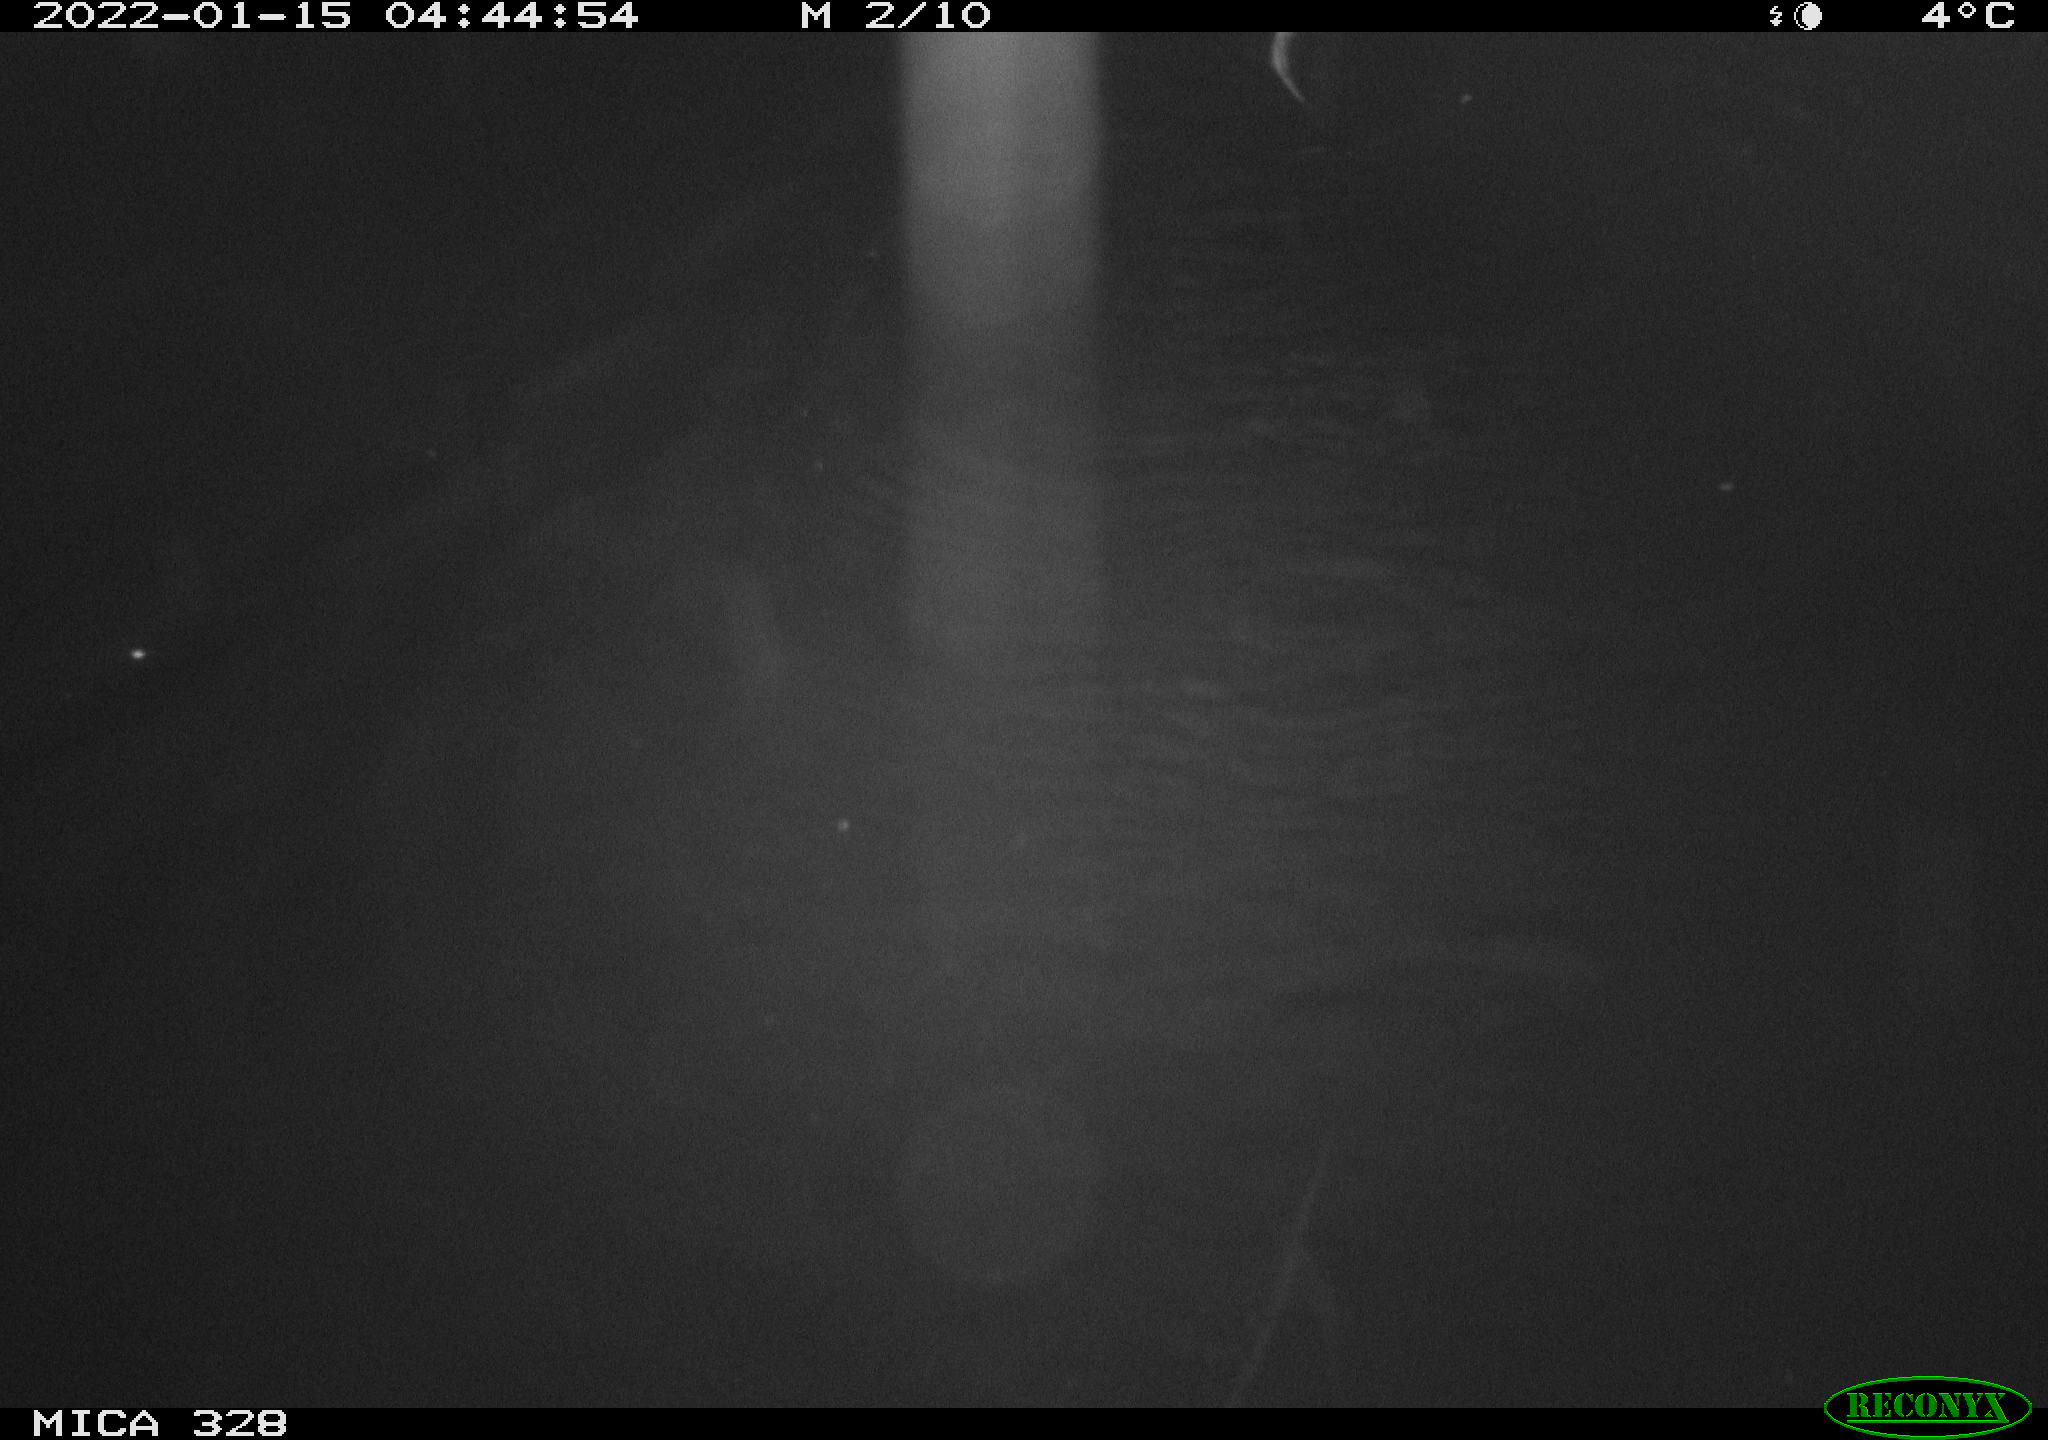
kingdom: Animalia
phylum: Chordata
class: Mammalia
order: Rodentia
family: Cricetidae
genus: Ondatra
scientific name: Ondatra zibethicus
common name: Muskrat
